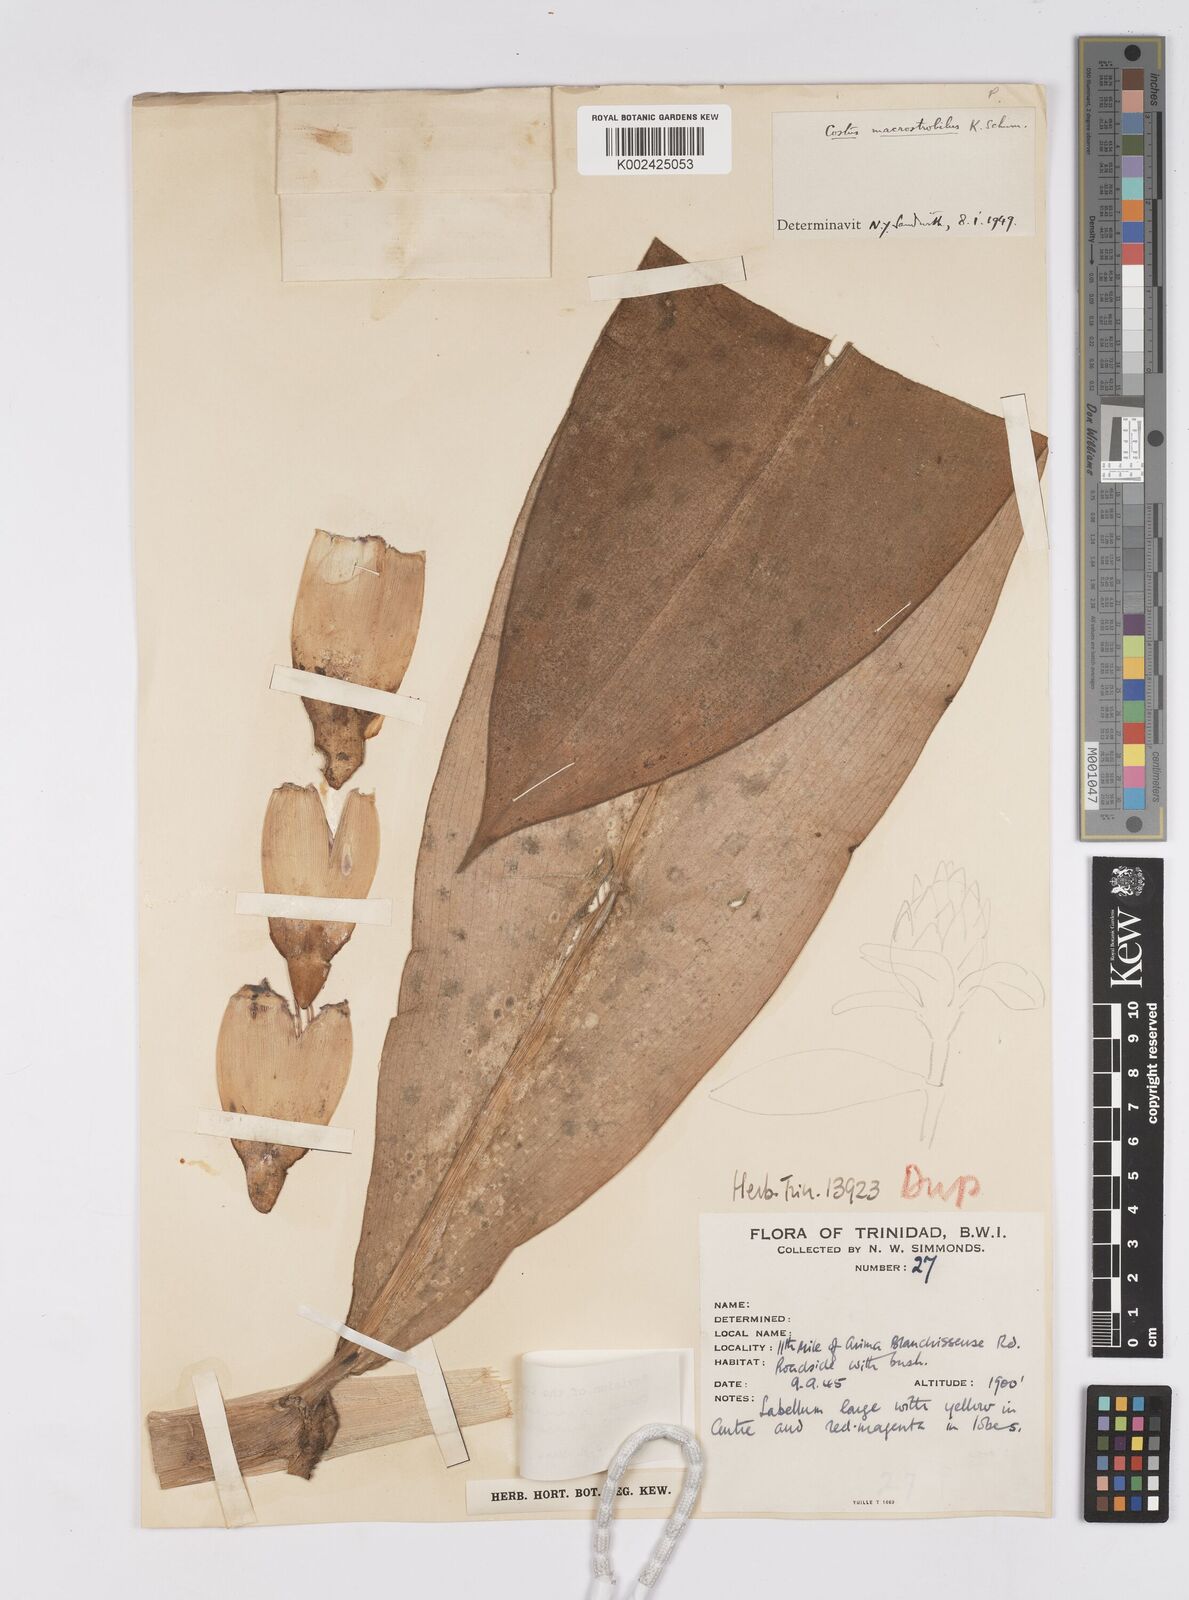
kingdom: Plantae
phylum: Tracheophyta
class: Liliopsida
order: Zingiberales
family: Costaceae
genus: Costus
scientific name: Costus guanaiensis
